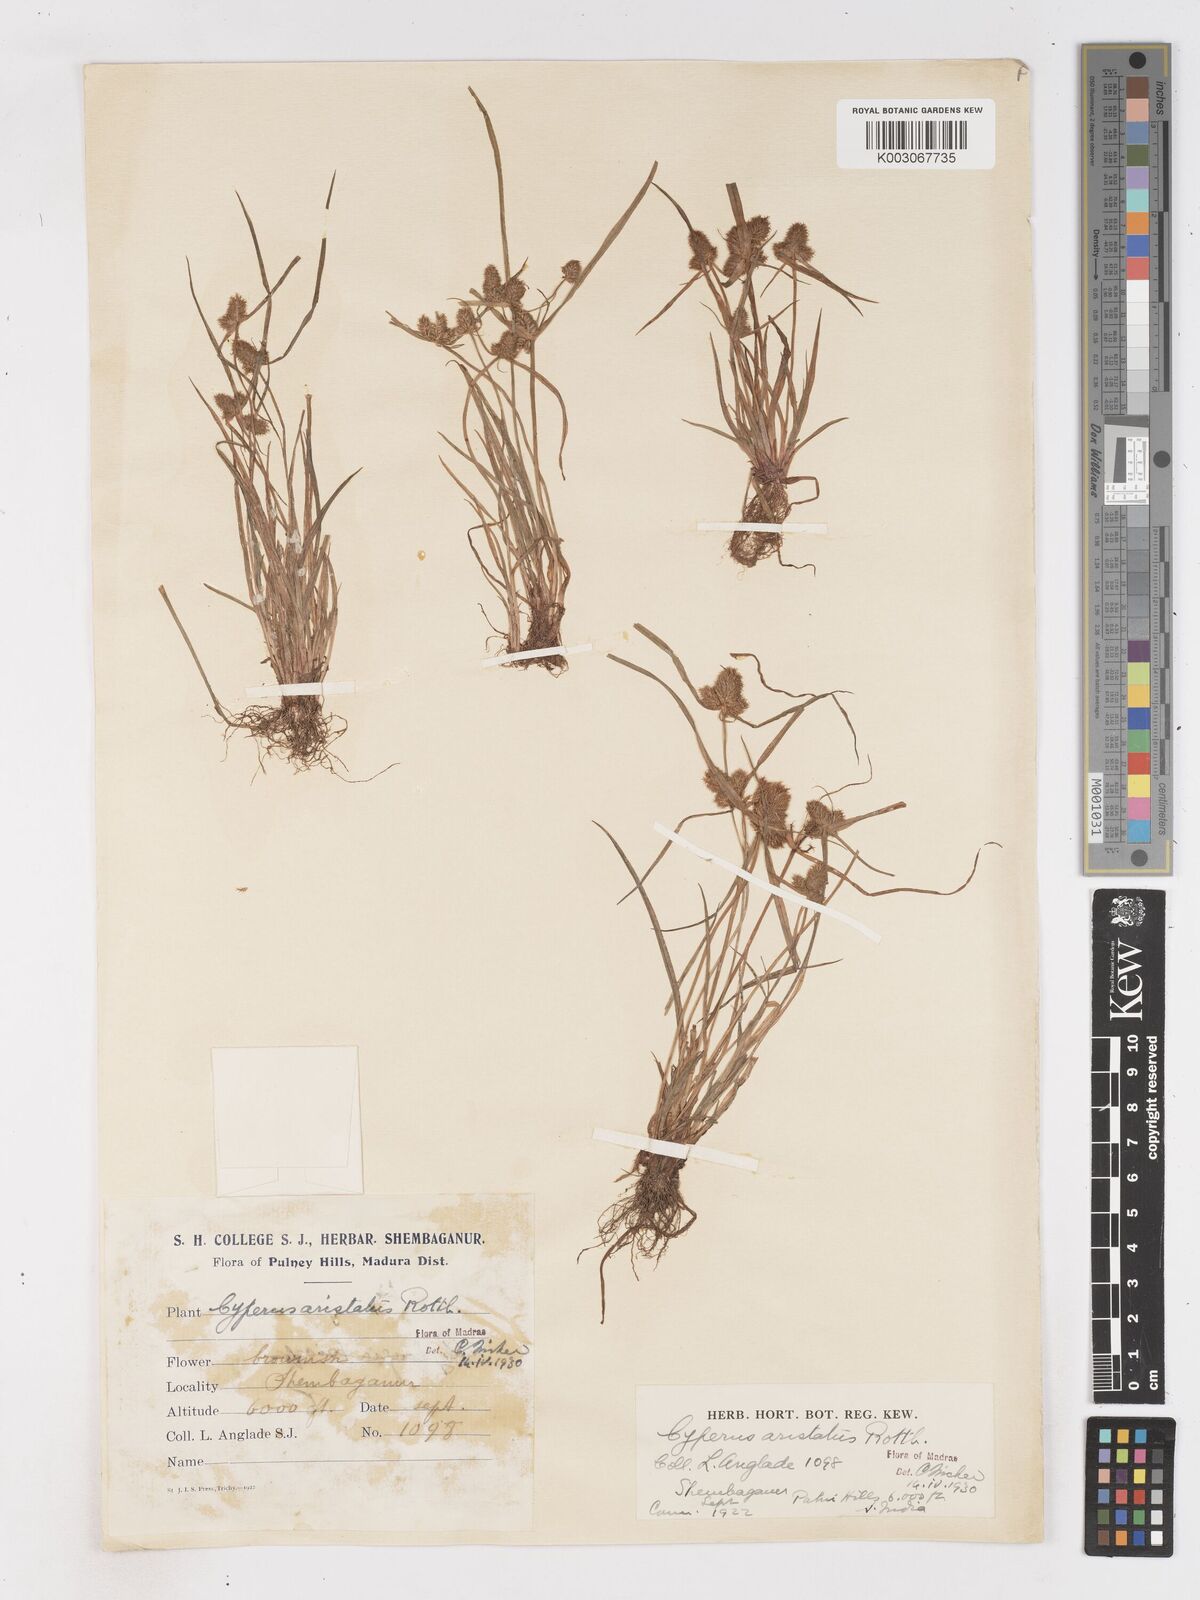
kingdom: Plantae
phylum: Tracheophyta
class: Liliopsida
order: Poales
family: Cyperaceae
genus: Cyperus
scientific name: Cyperus squarrosus
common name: Awned cyperus
